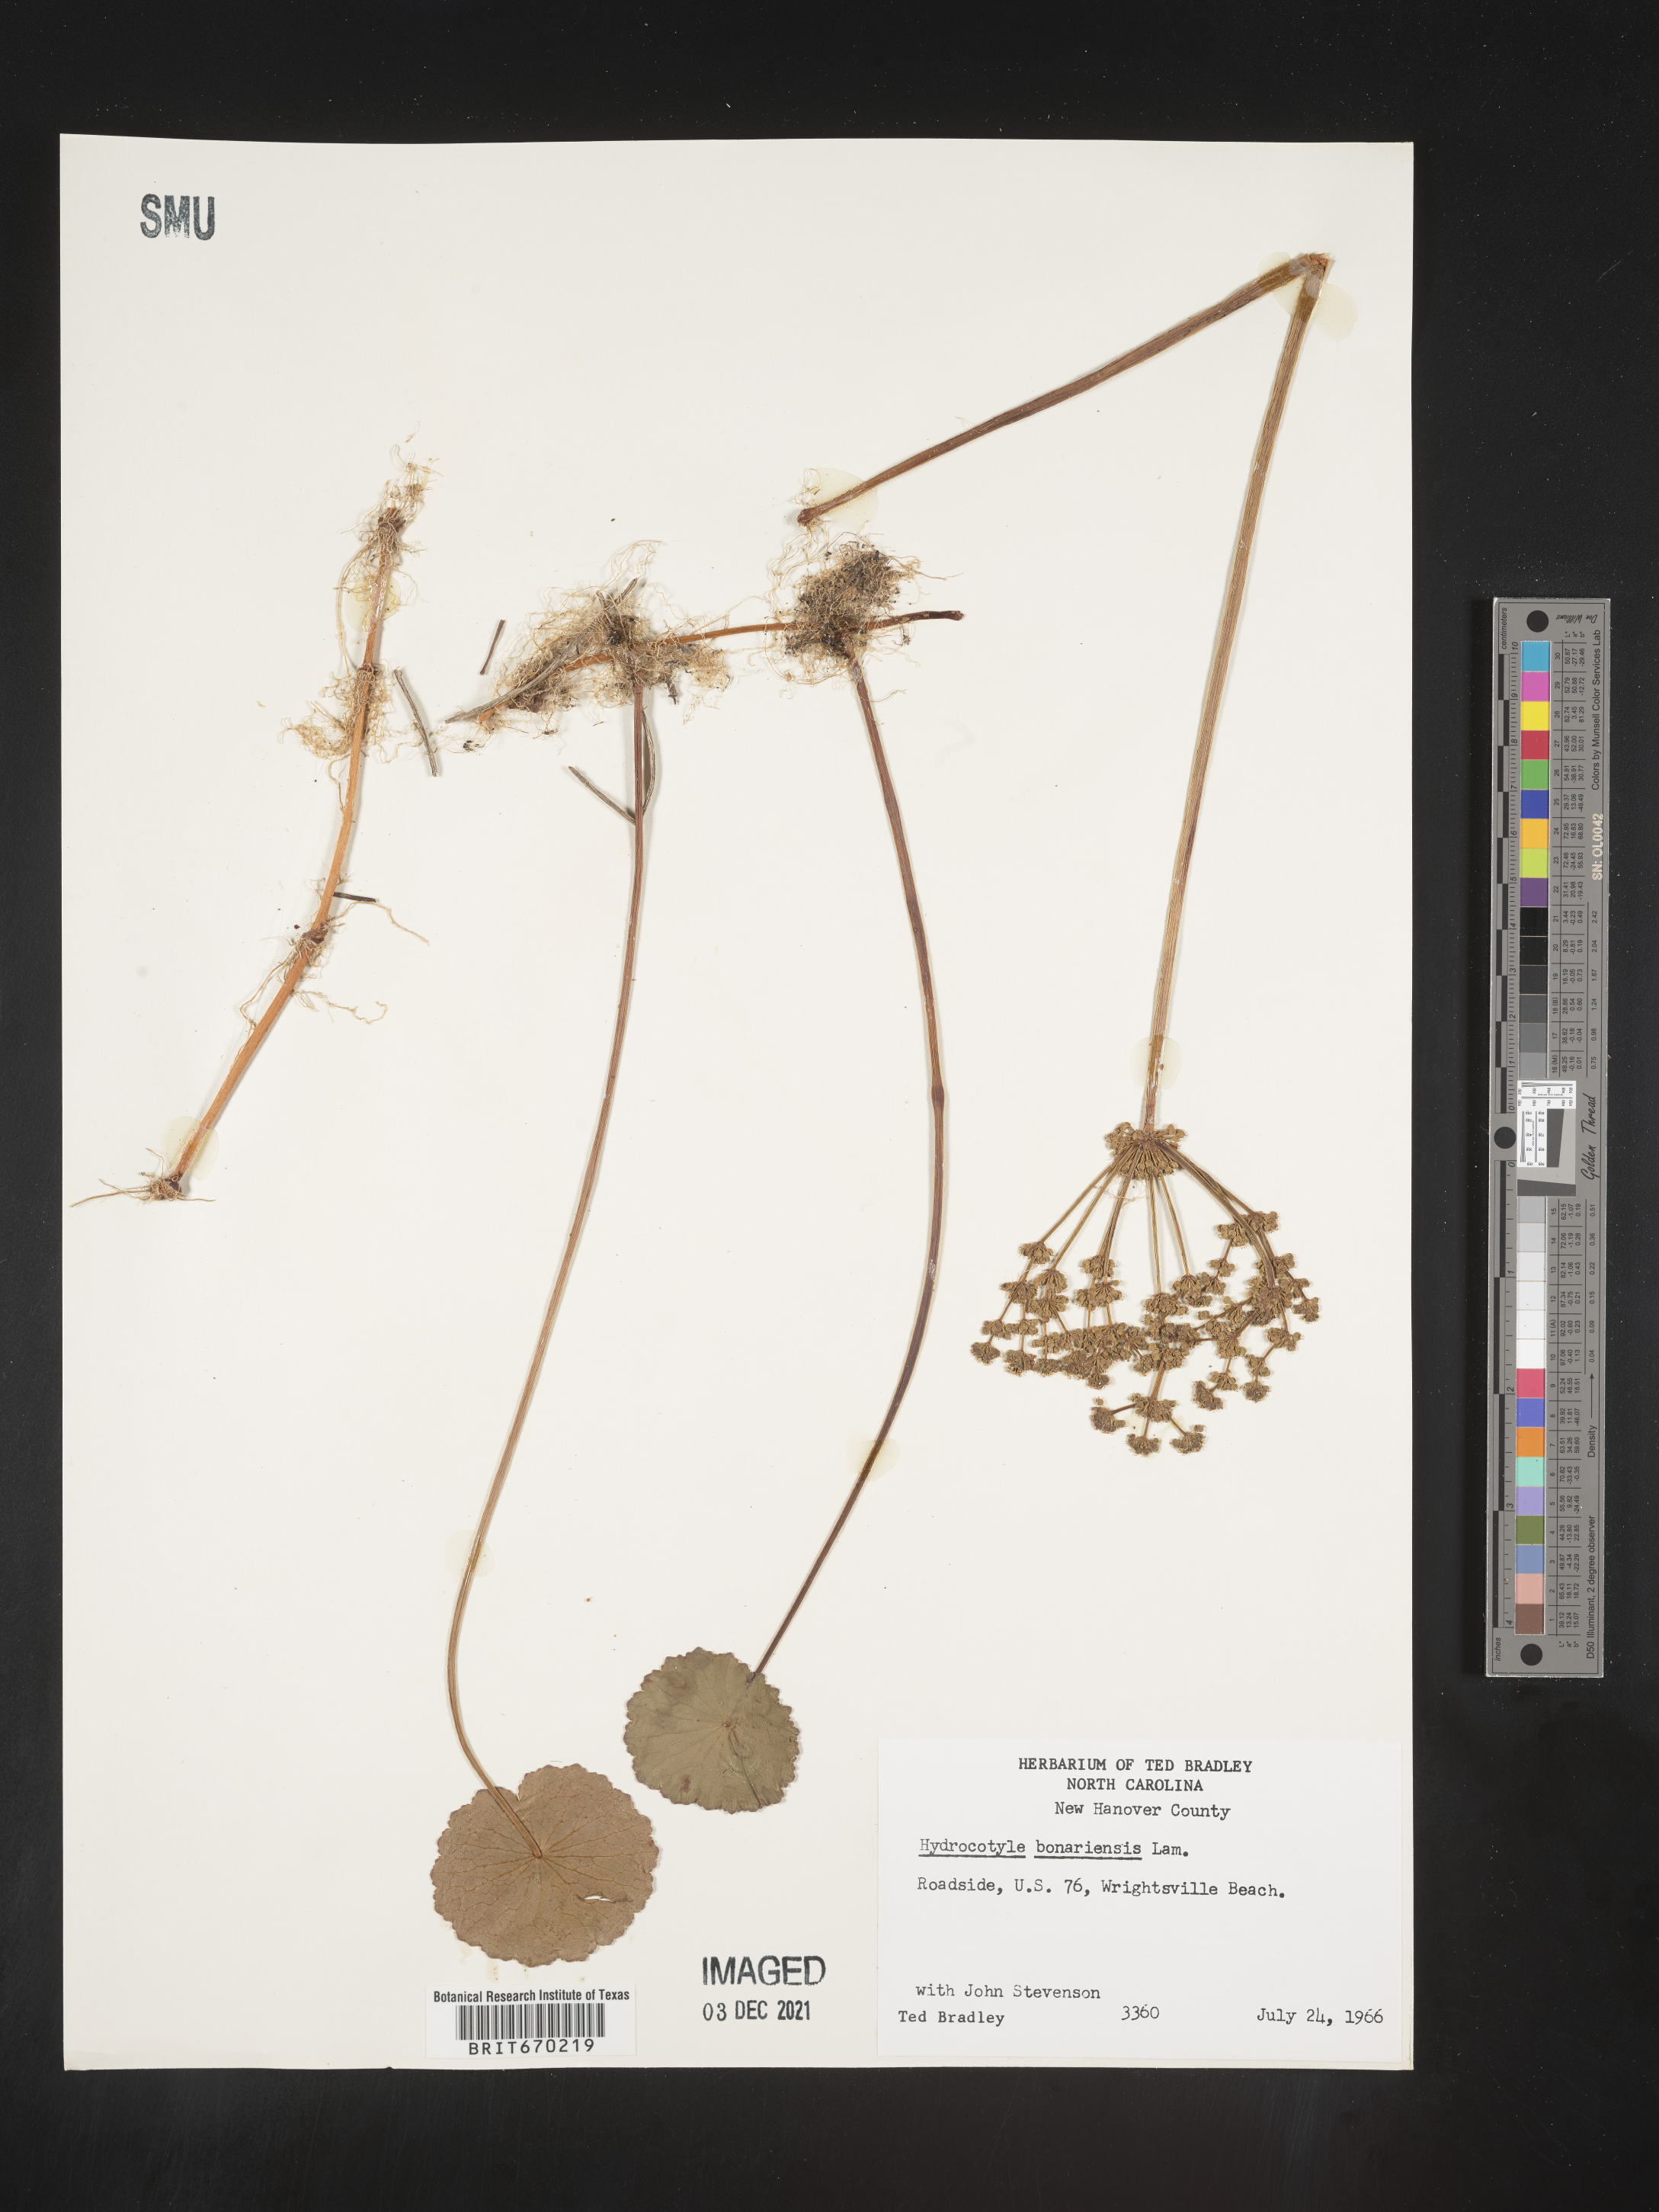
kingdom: Plantae
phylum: Tracheophyta
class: Magnoliopsida
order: Apiales
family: Araliaceae
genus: Hydrocotyle
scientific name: Hydrocotyle bonariensis
